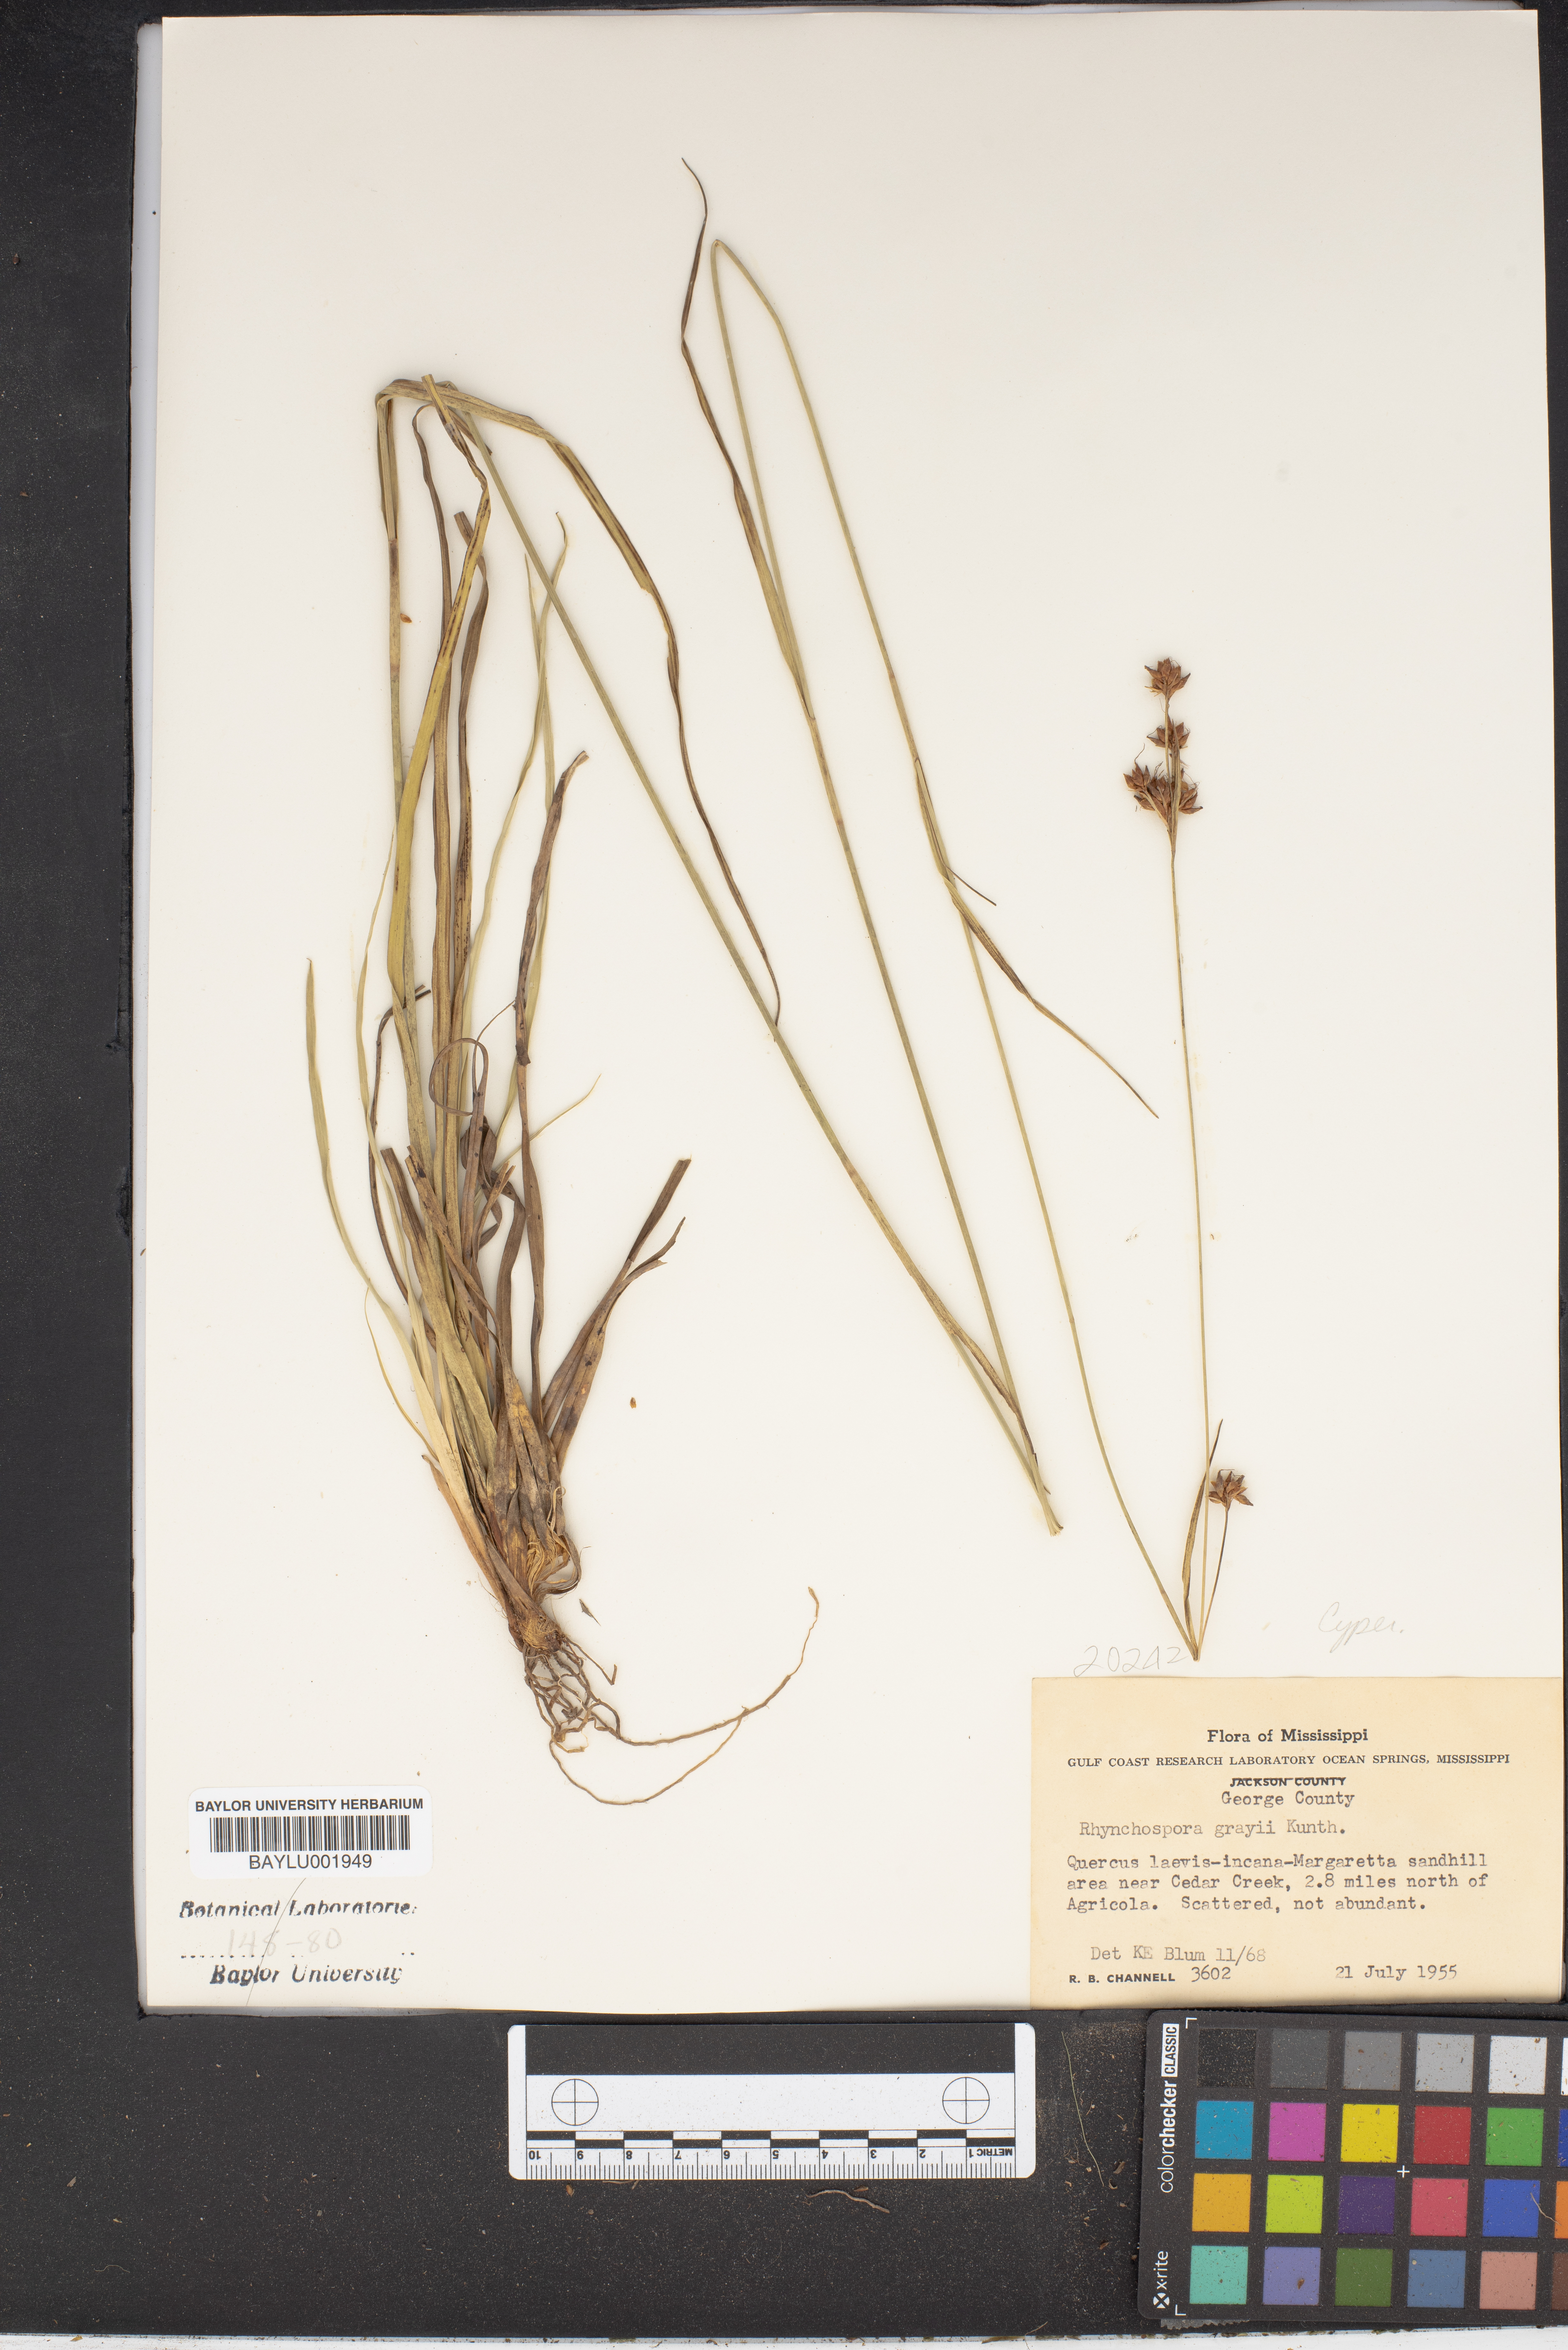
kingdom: Plantae
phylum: Tracheophyta
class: Liliopsida
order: Poales
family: Cyperaceae
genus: Rhynchospora
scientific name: Rhynchospora grayi
